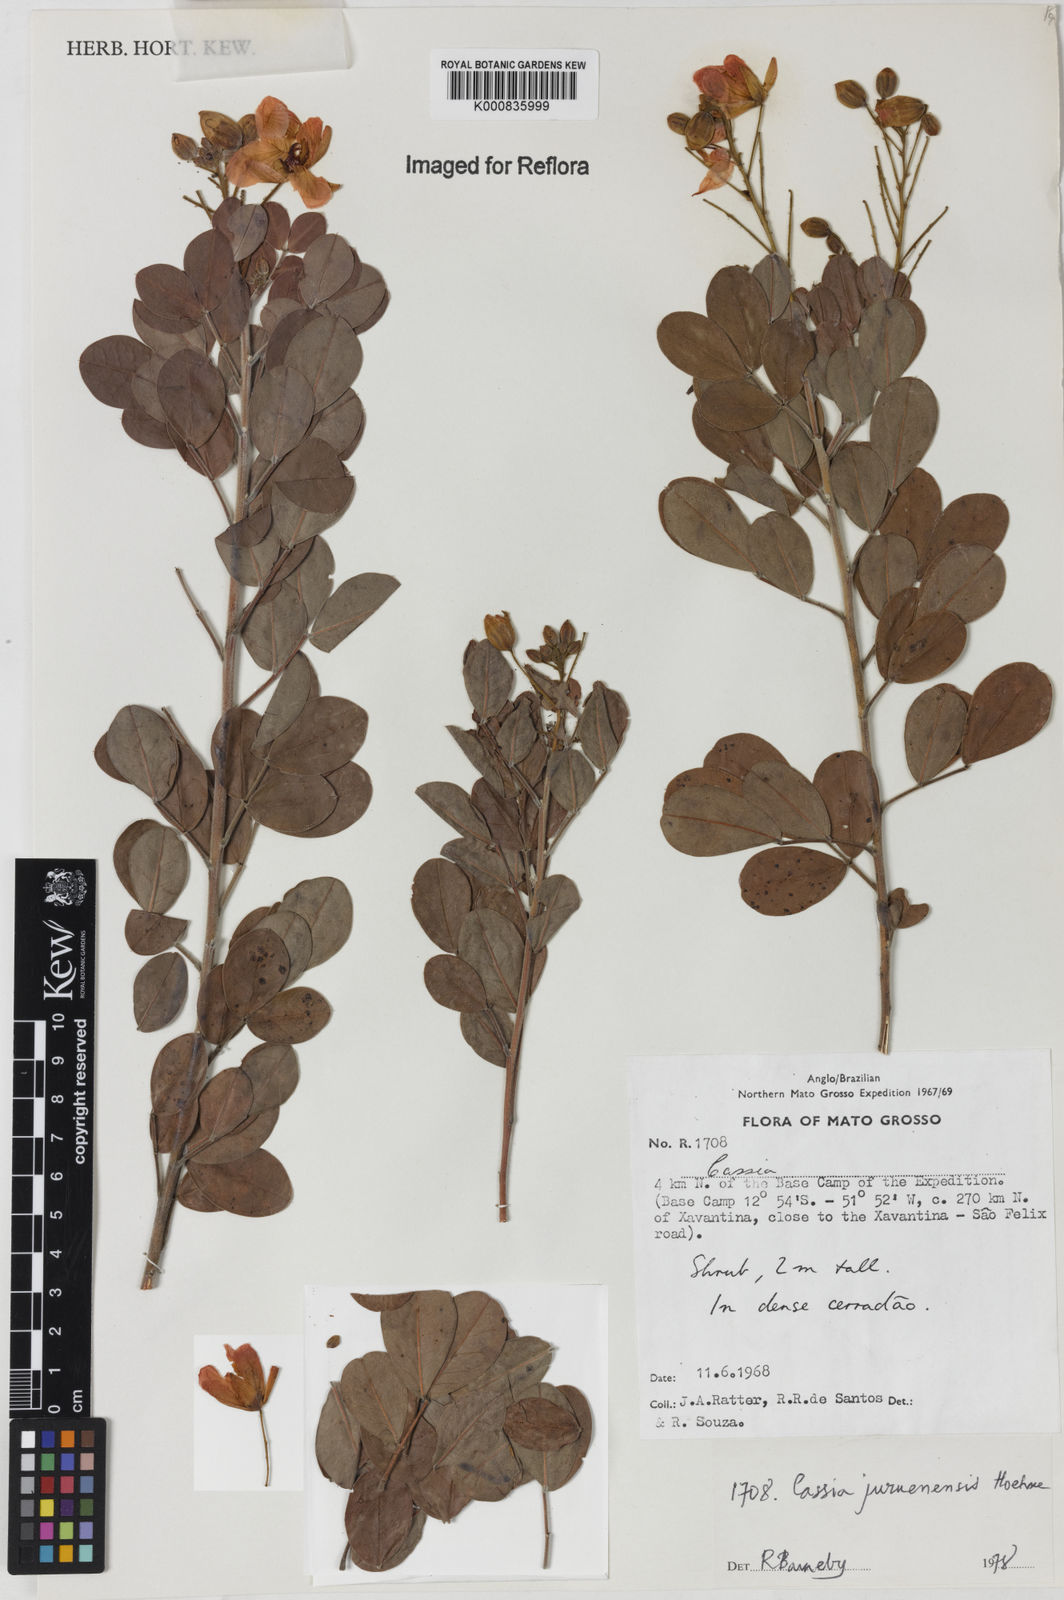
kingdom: Plantae
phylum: Tracheophyta
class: Magnoliopsida
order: Fabales
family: Fabaceae
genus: Chamaecrista
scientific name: Chamaecrista juruenensis
